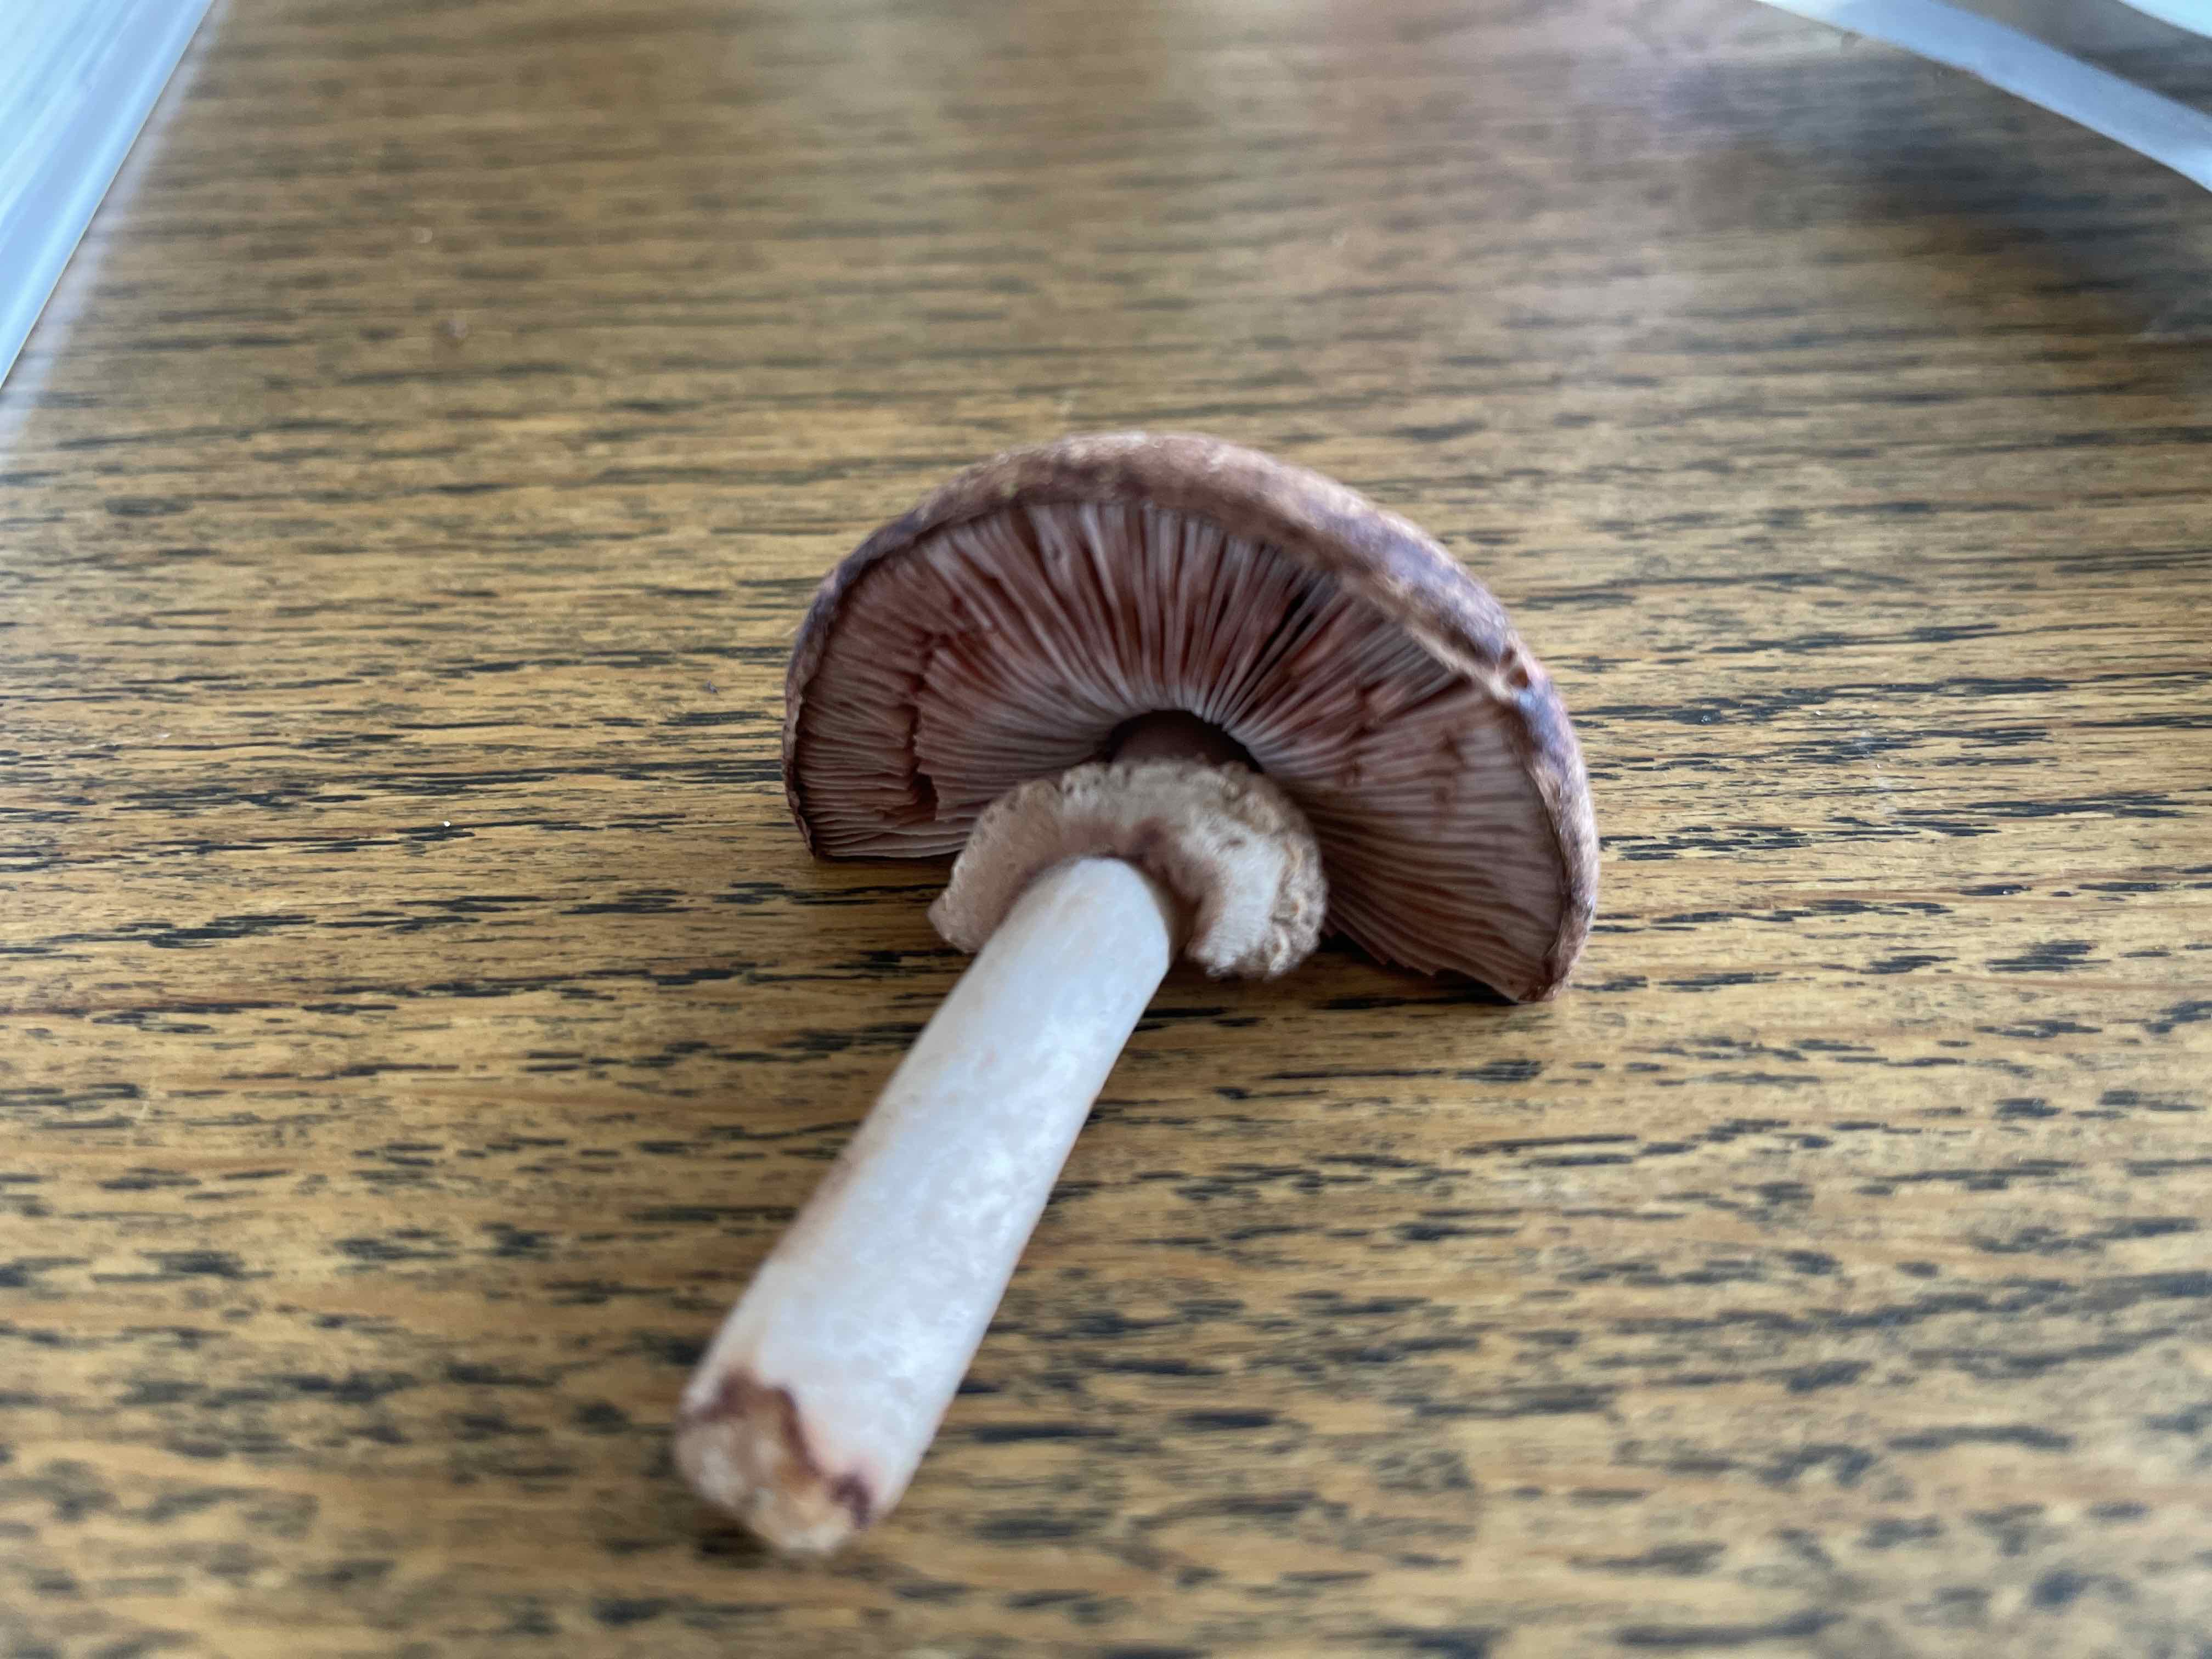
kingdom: Fungi
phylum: Basidiomycota
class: Agaricomycetes
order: Agaricales
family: Agaricaceae
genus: Agaricus
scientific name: Agaricus
